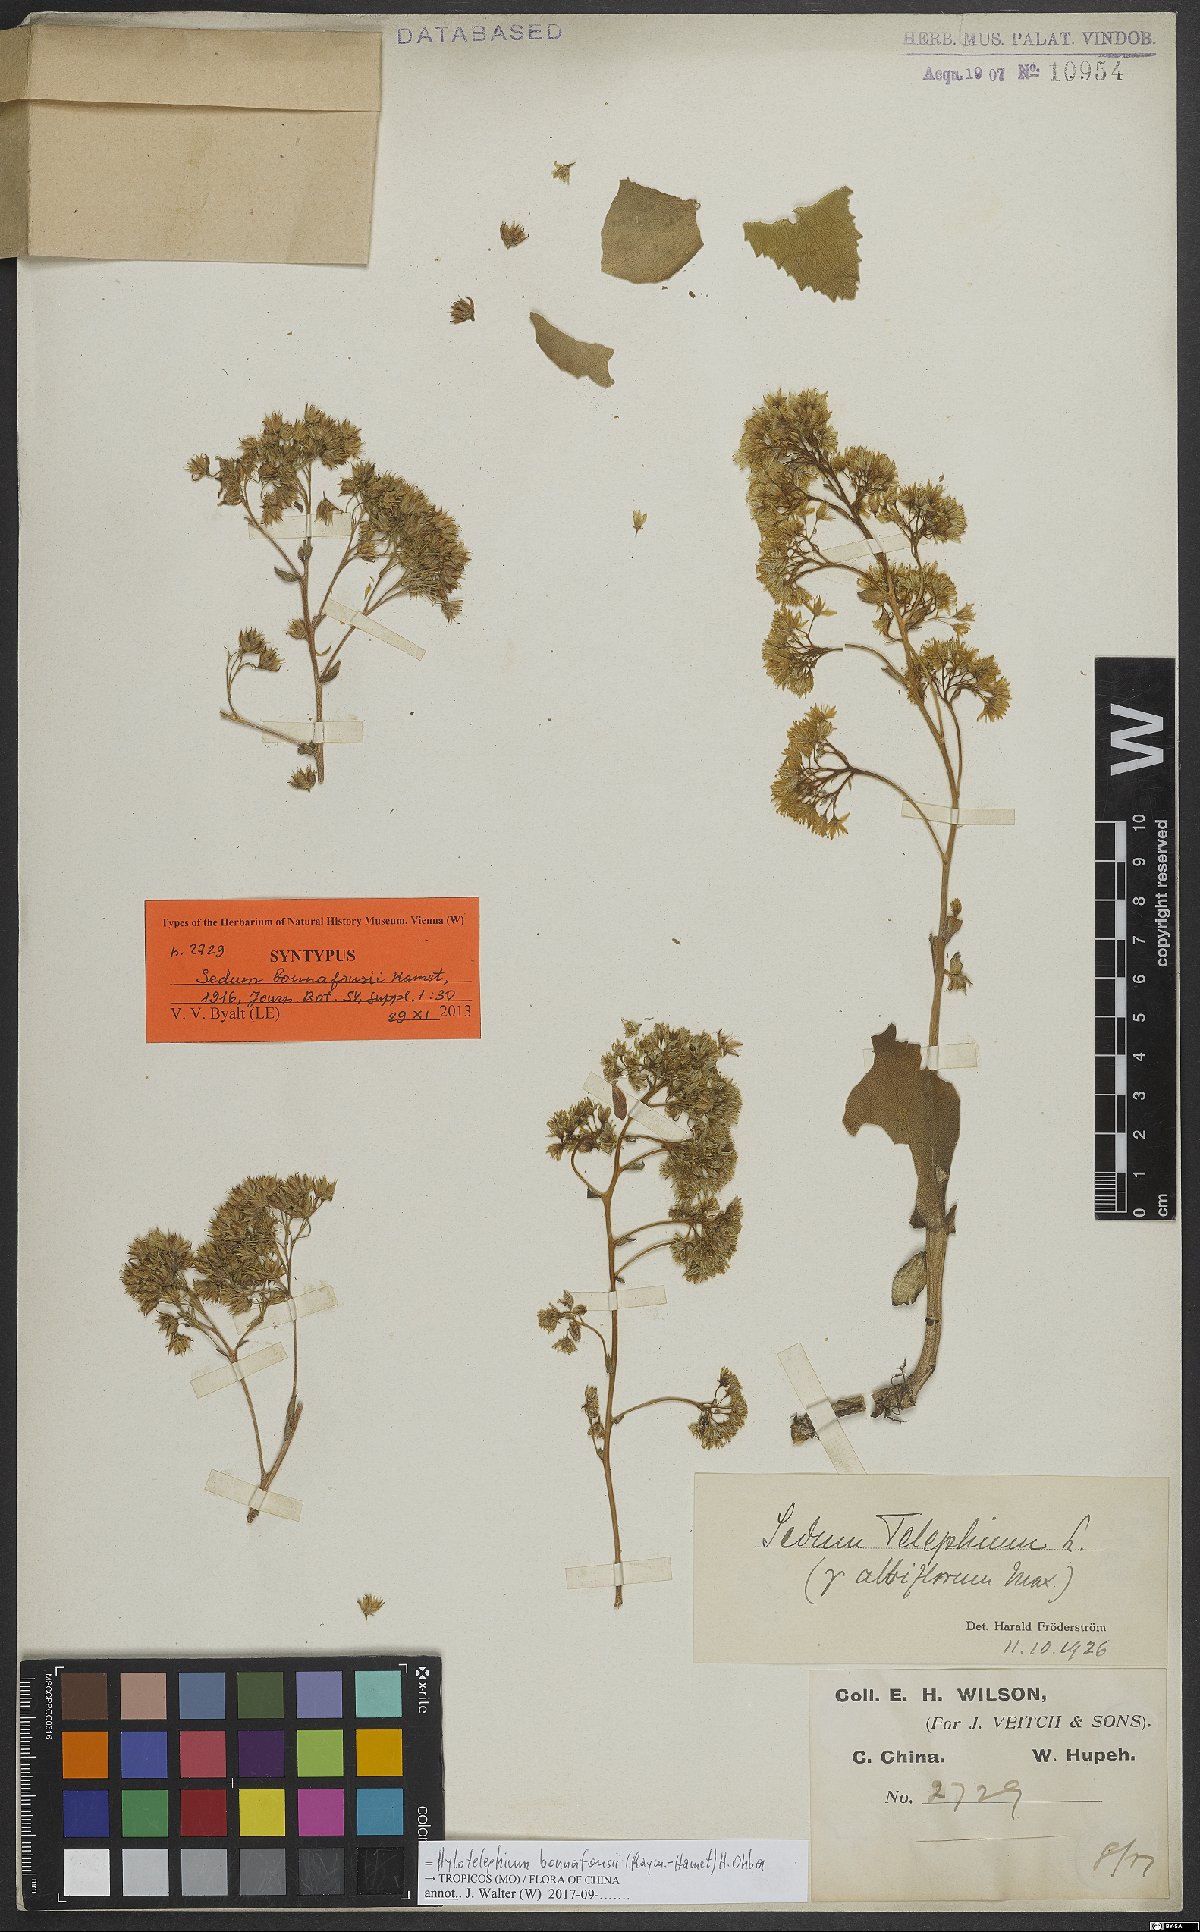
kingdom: Plantae
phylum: Tracheophyta
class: Magnoliopsida
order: Saxifragales
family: Crassulaceae
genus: Hylotelephium
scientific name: Hylotelephium bonnafousi
